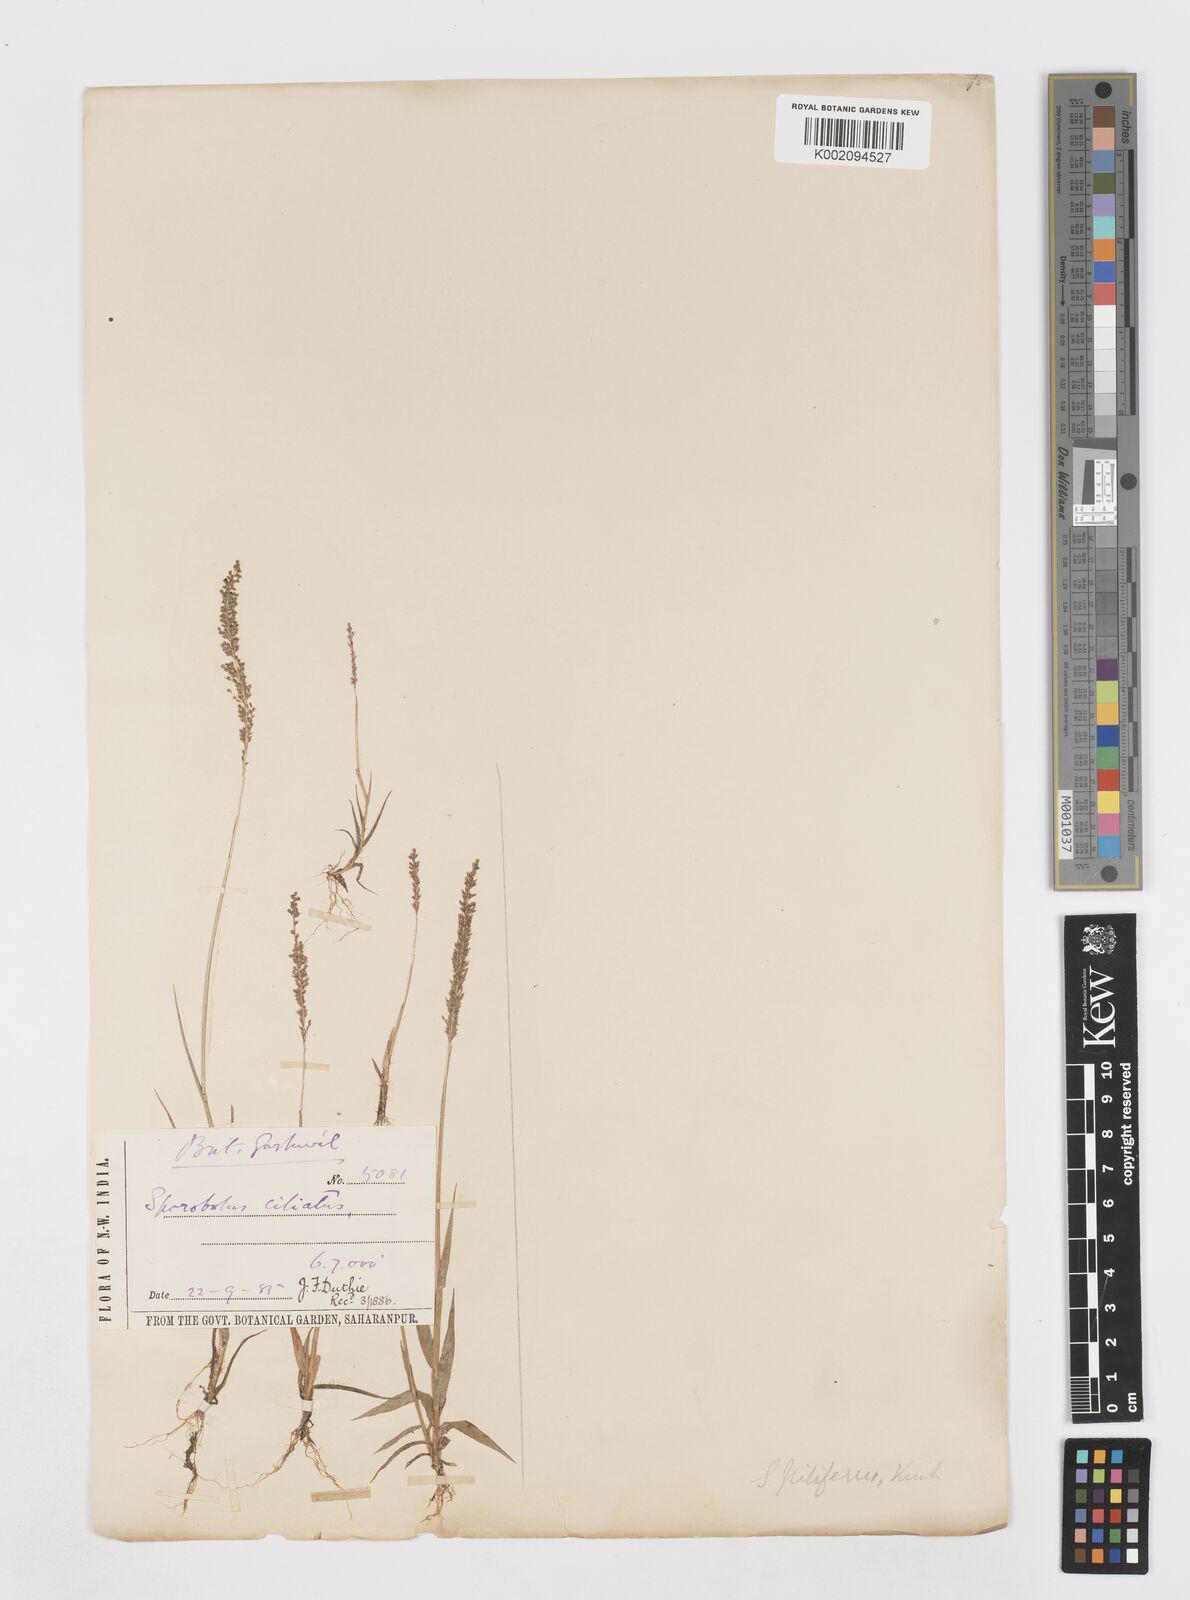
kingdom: Plantae
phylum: Tracheophyta
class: Liliopsida
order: Poales
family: Poaceae
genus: Sporobolus
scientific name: Sporobolus pilifer
